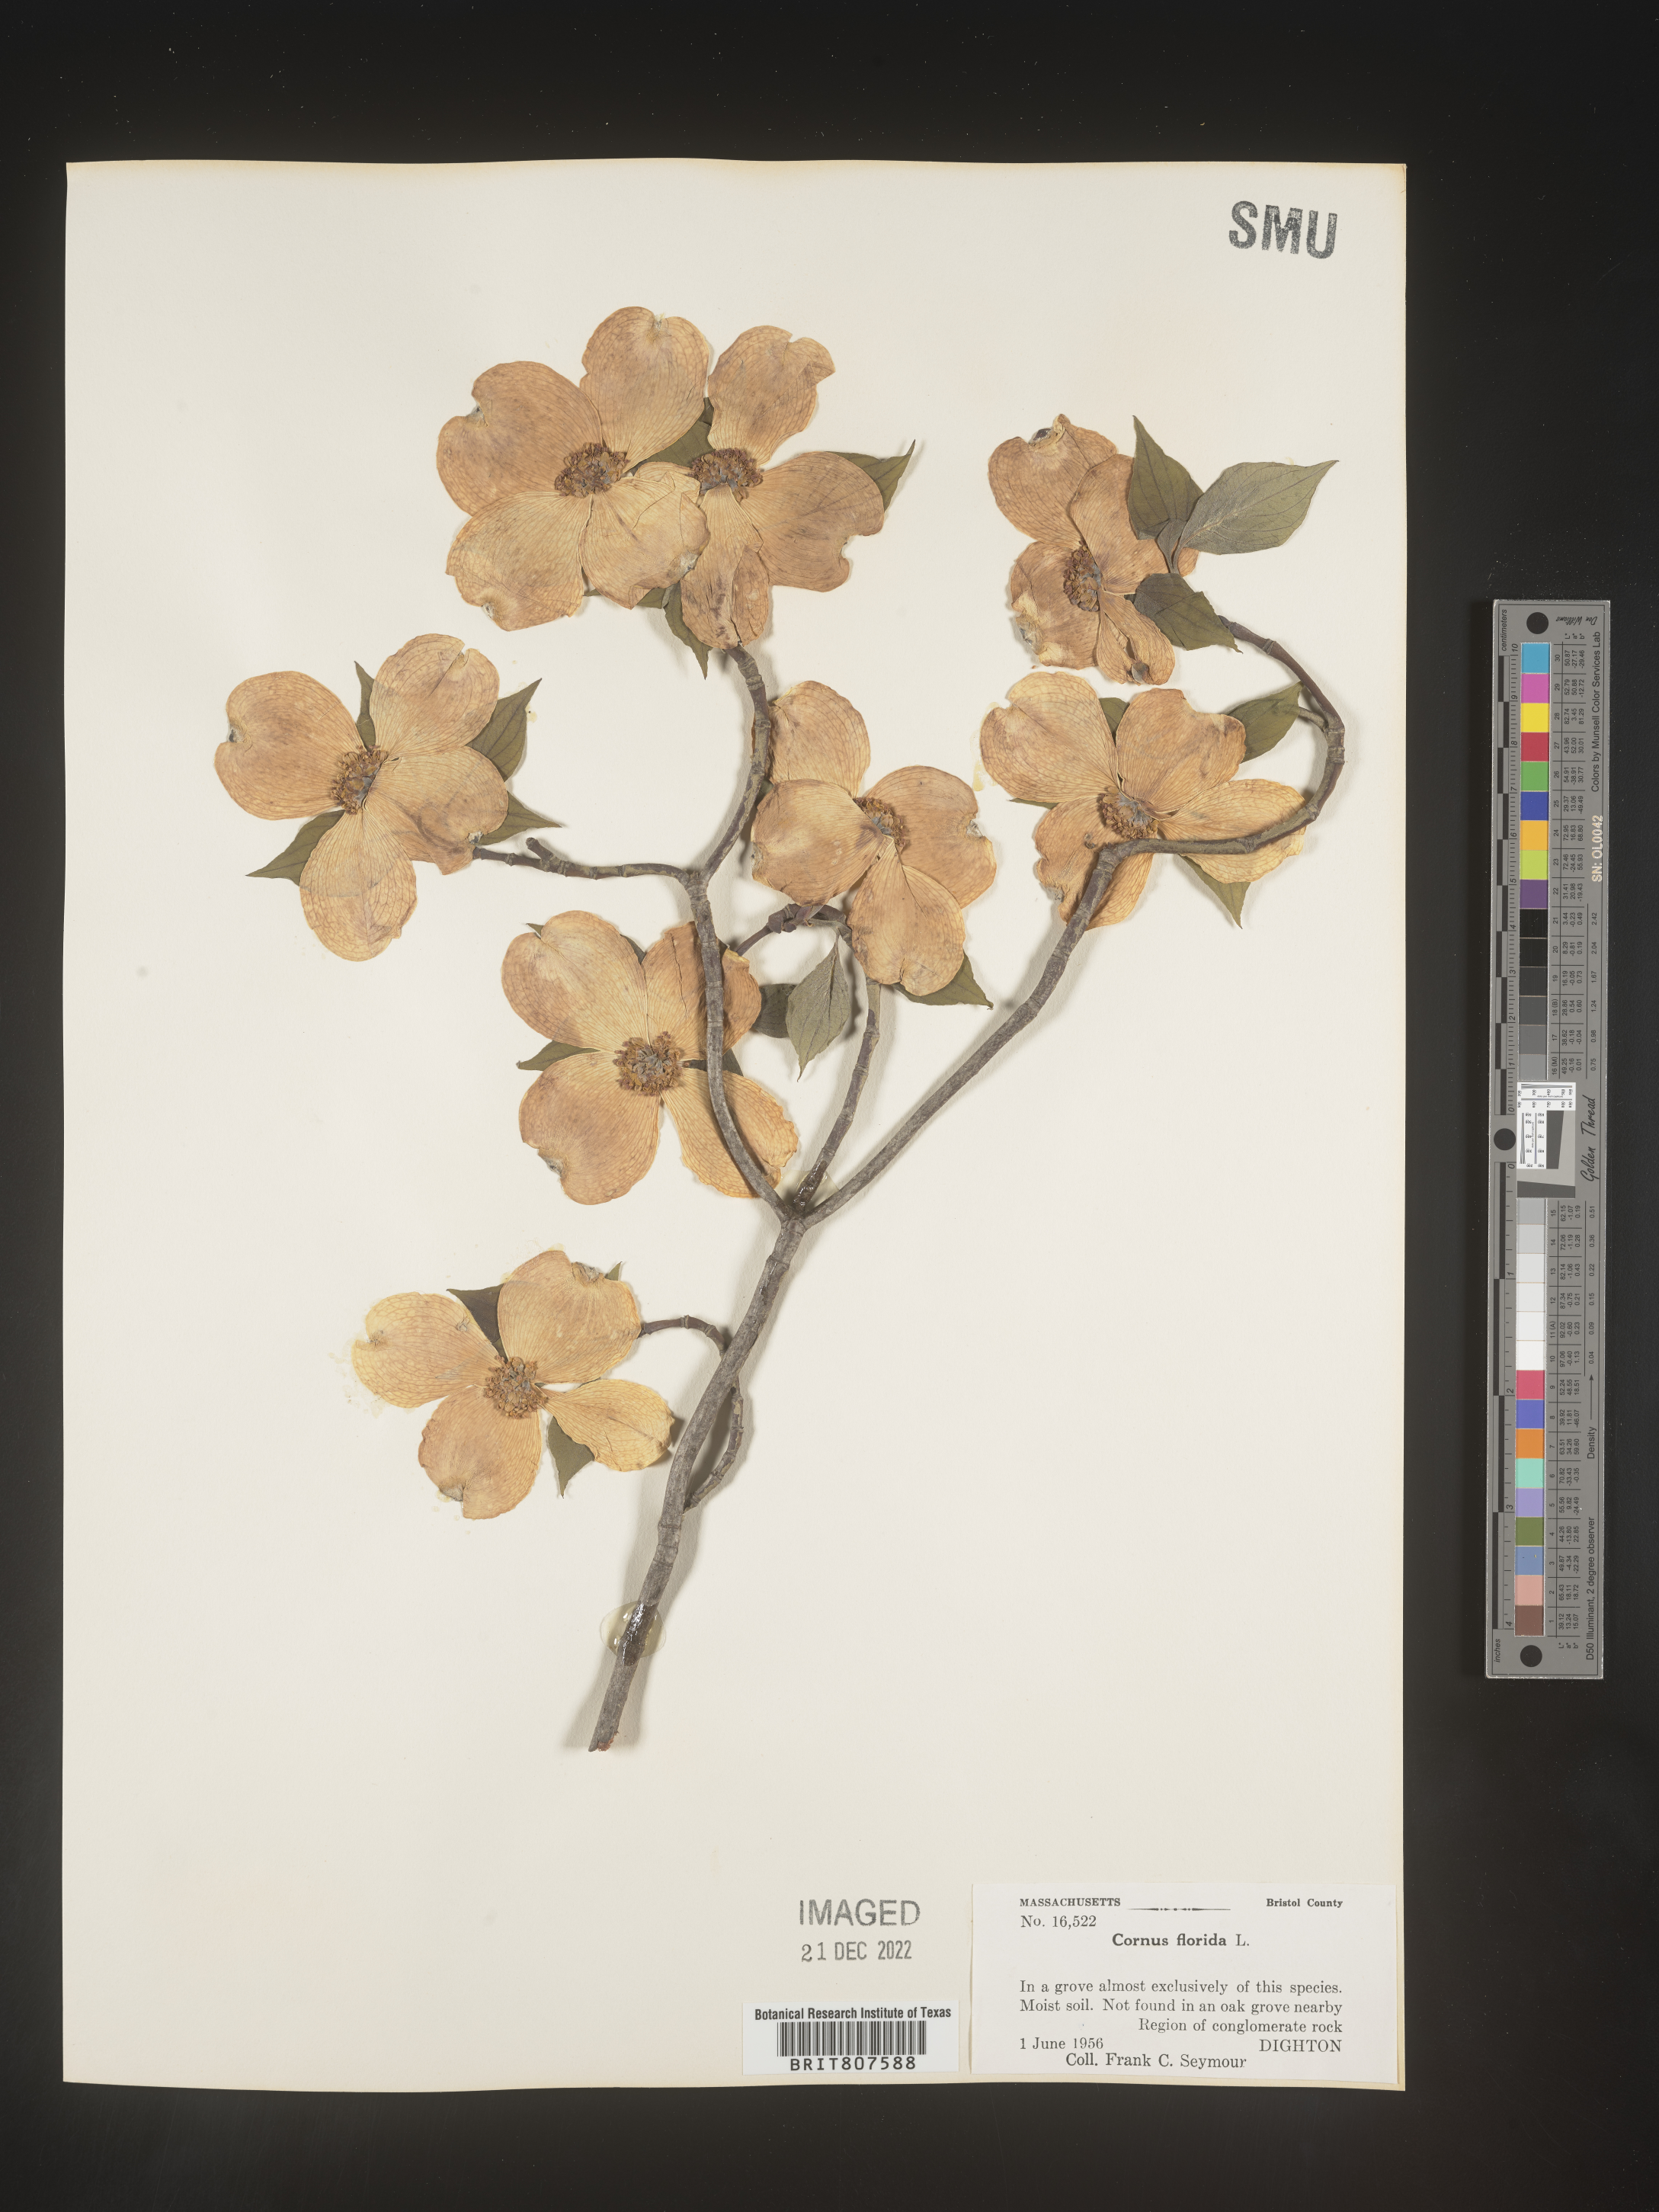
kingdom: Plantae
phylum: Tracheophyta
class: Magnoliopsida
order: Cornales
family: Cornaceae
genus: Cornus
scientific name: Cornus florida
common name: Flowering dogwood
